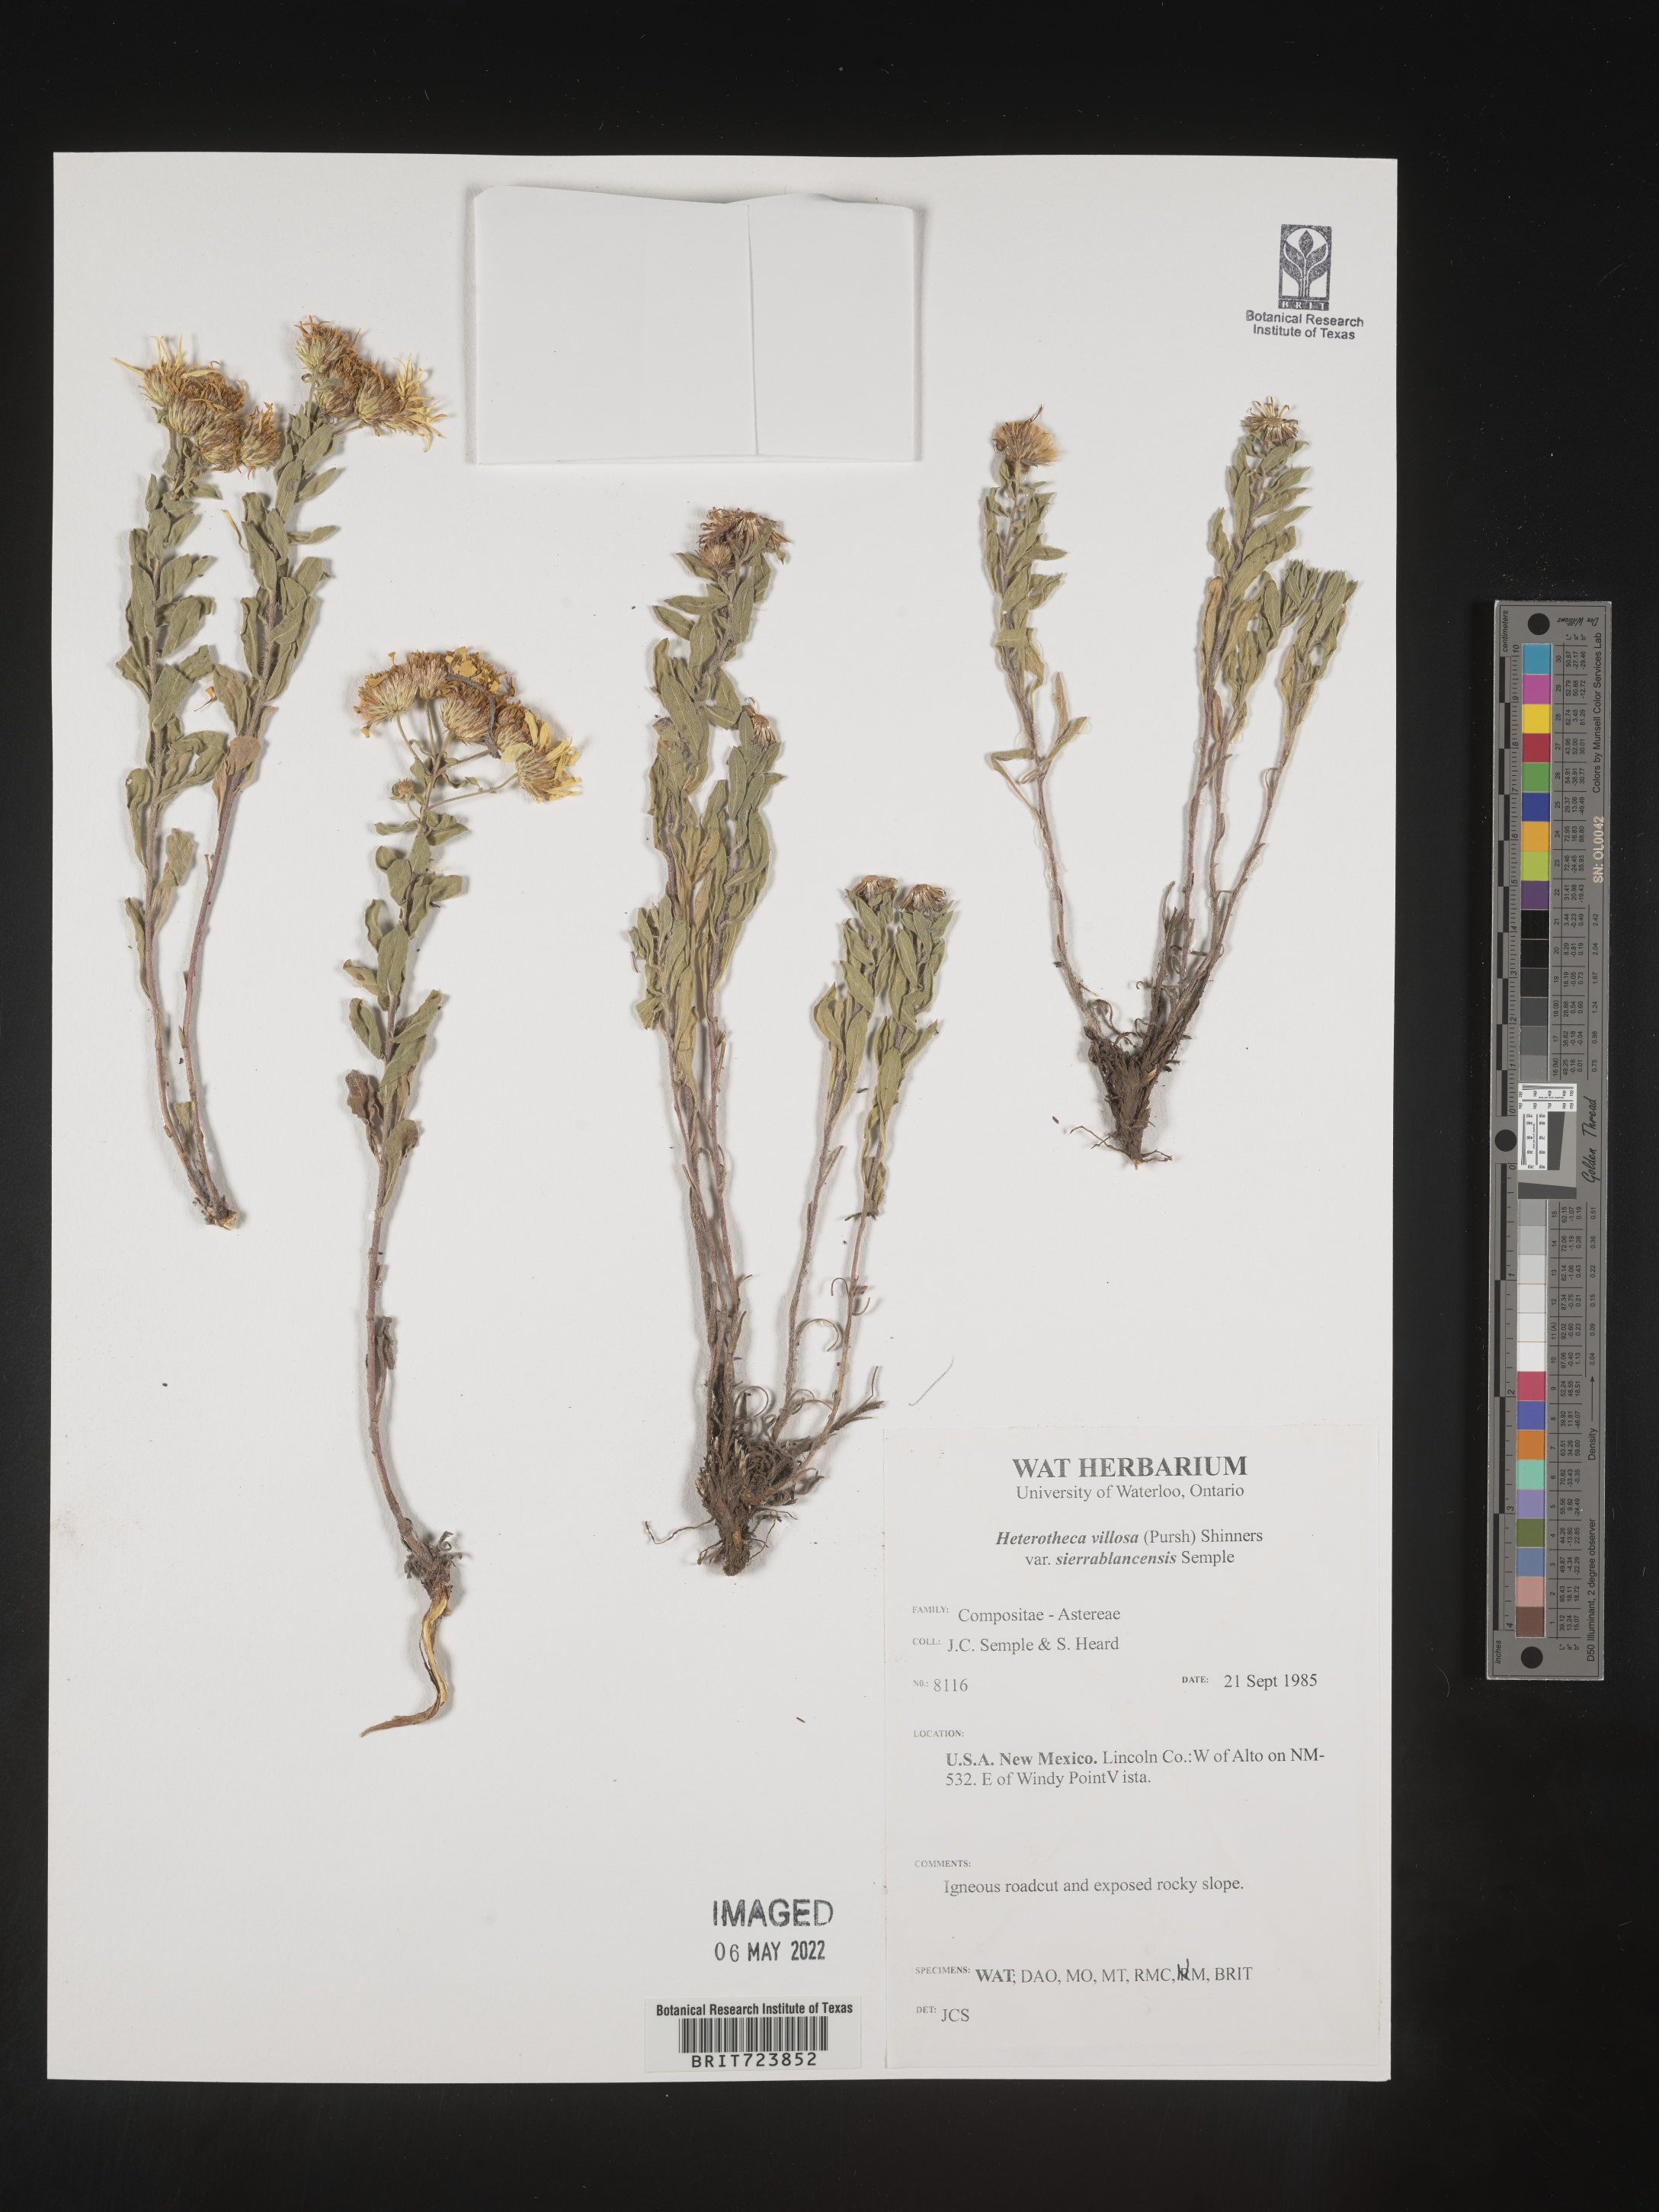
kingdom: Plantae
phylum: Tracheophyta
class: Magnoliopsida
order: Asterales
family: Asteraceae
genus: Heterotheca
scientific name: Heterotheca sierrablancensis
